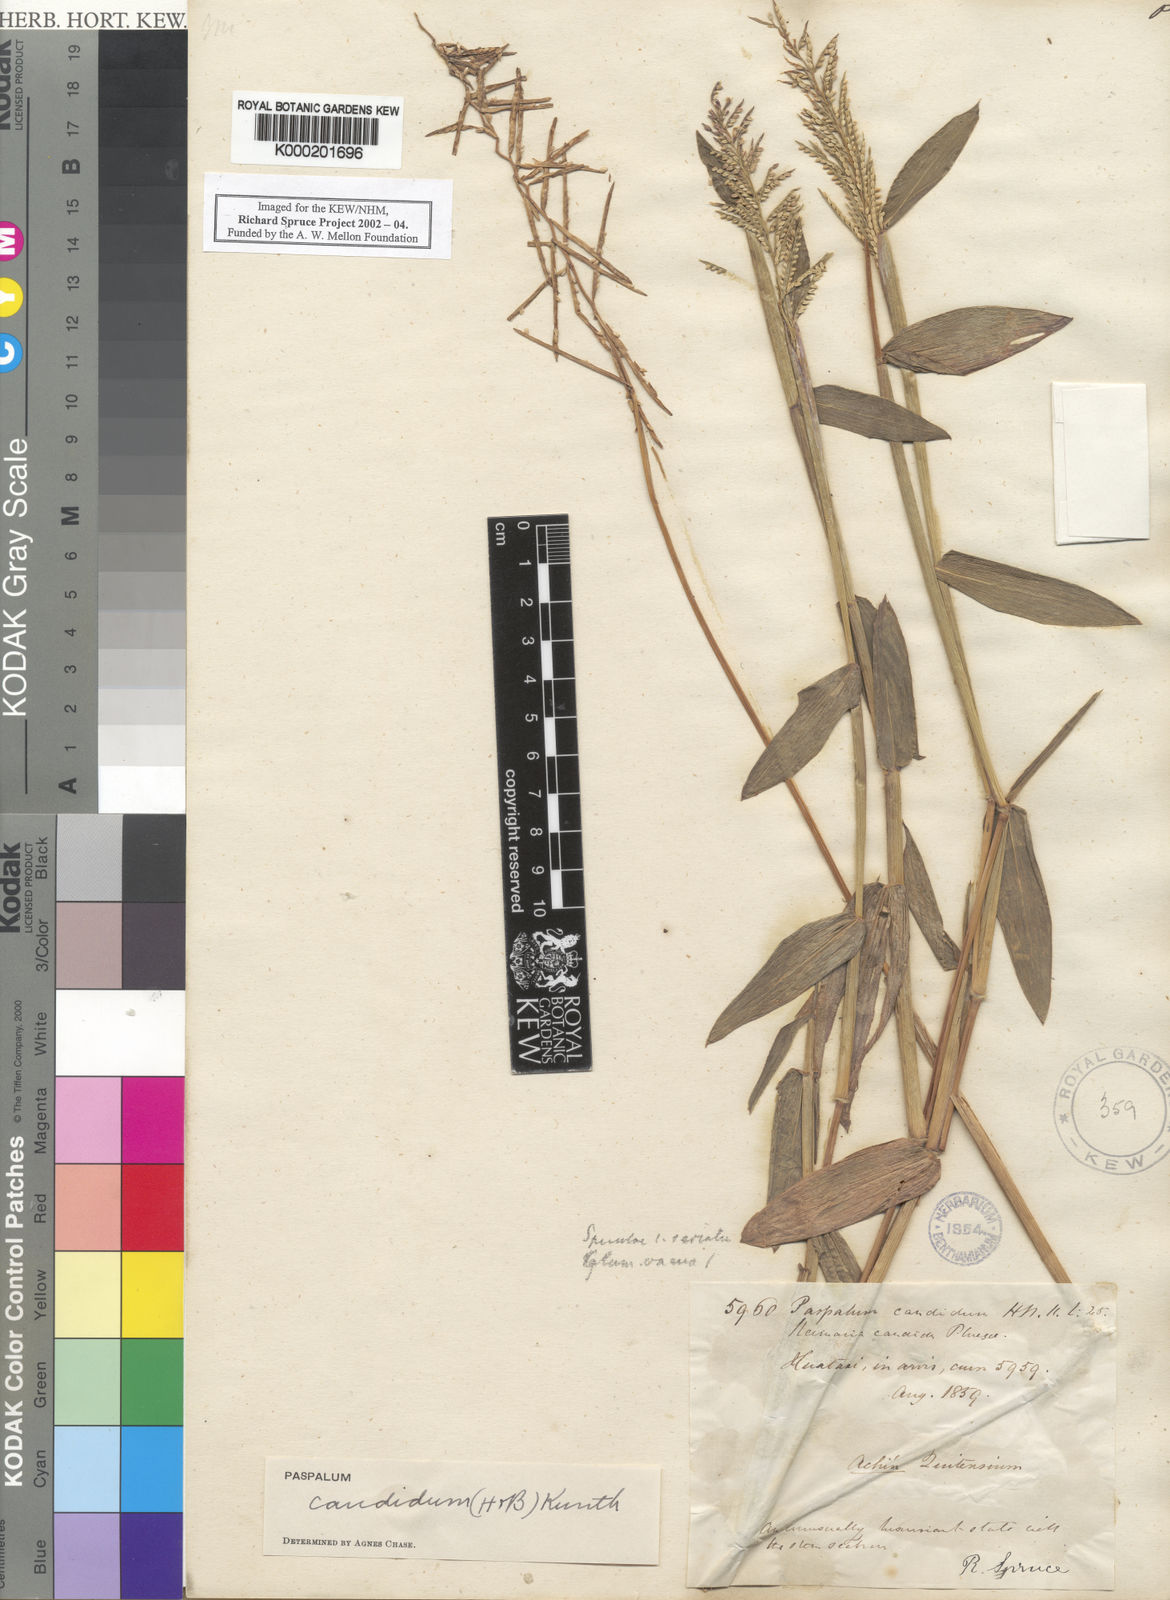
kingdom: Plantae
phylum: Tracheophyta
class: Liliopsida
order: Poales
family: Poaceae
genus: Paspalum
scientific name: Paspalum
